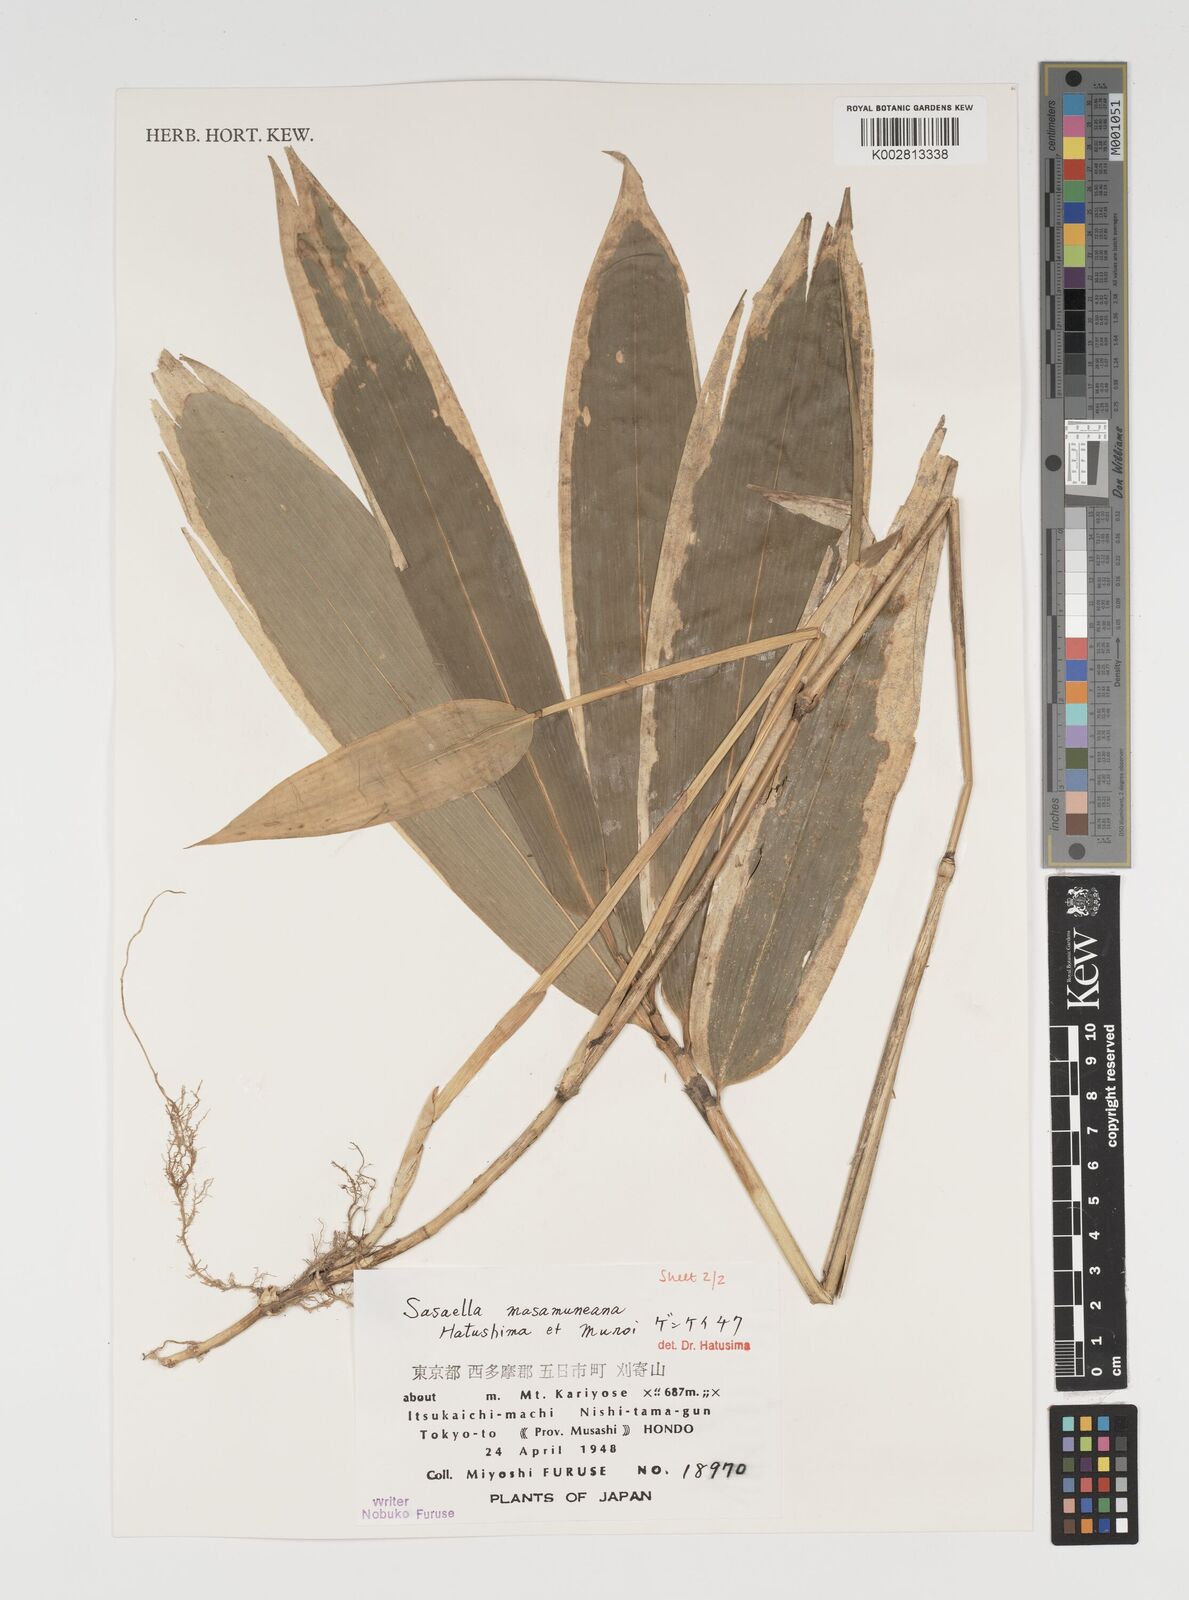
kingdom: Plantae
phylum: Tracheophyta
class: Liliopsida
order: Poales
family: Poaceae
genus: Sasaella
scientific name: Sasaella masamuneana
